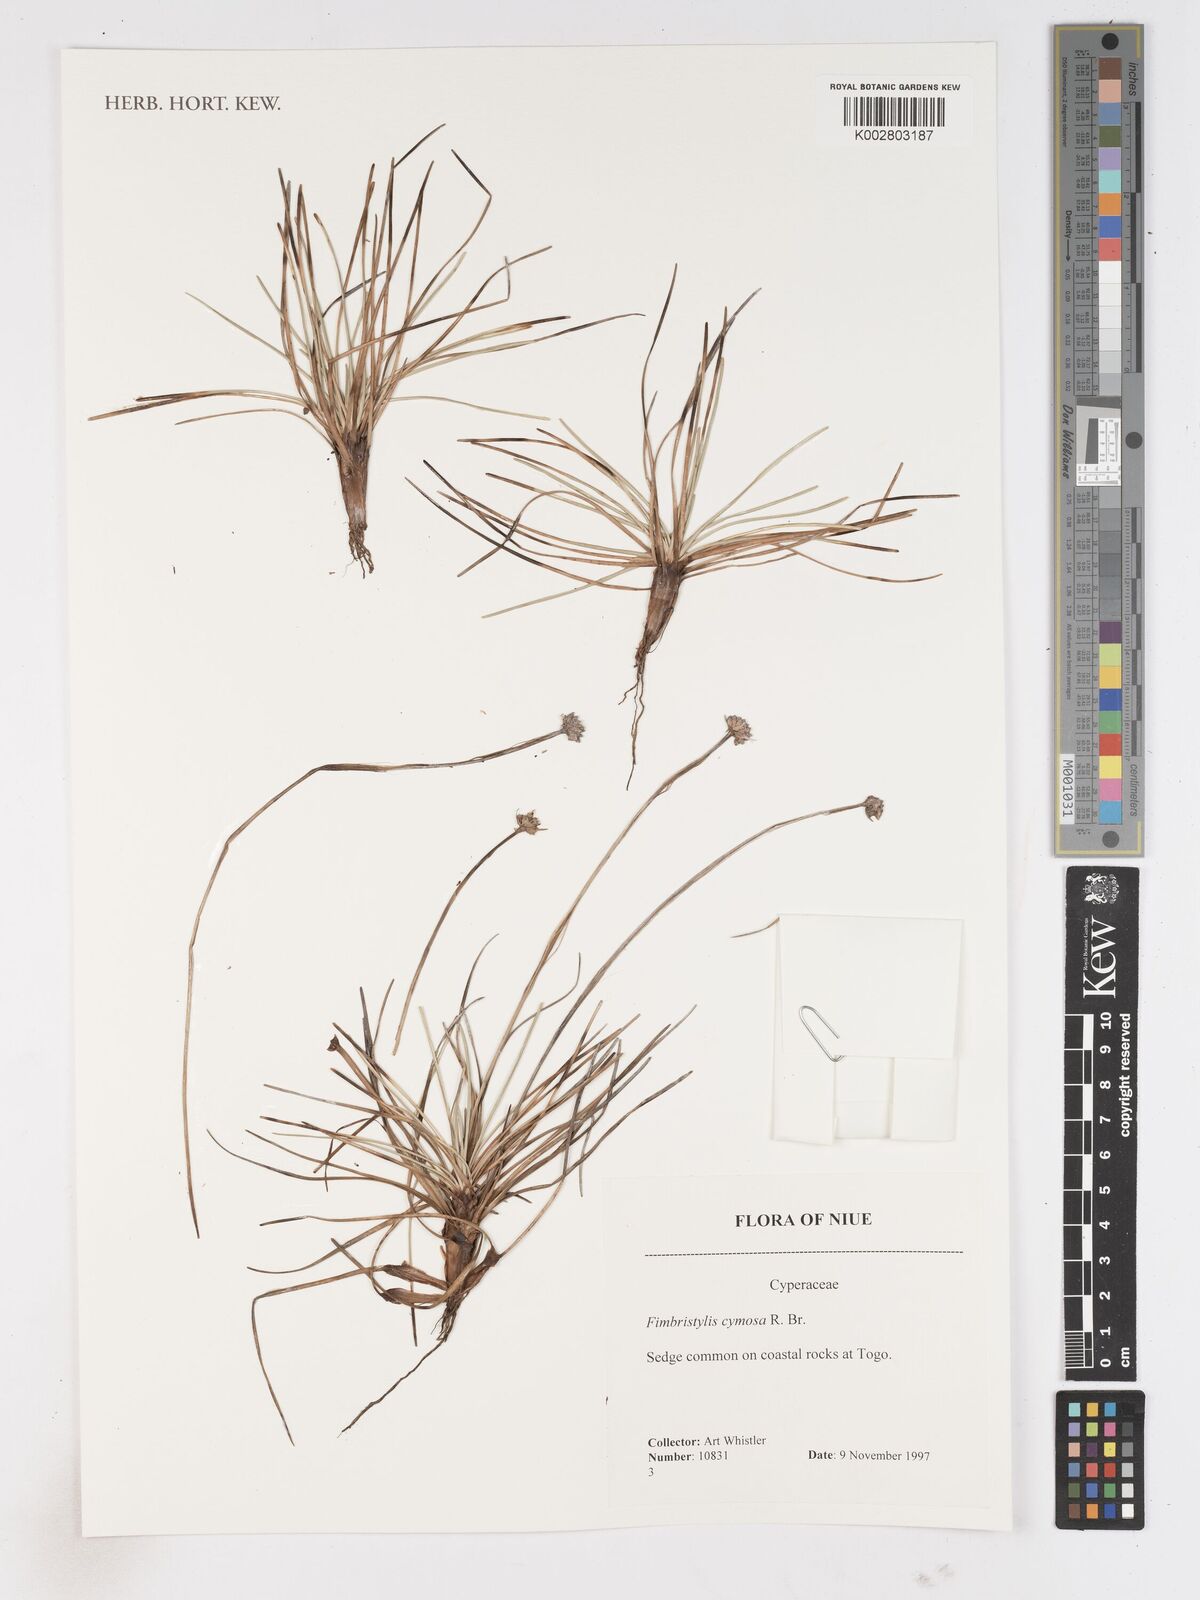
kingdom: Plantae
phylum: Tracheophyta
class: Liliopsida
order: Poales
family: Cyperaceae
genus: Fimbristylis
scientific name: Fimbristylis cymosa
